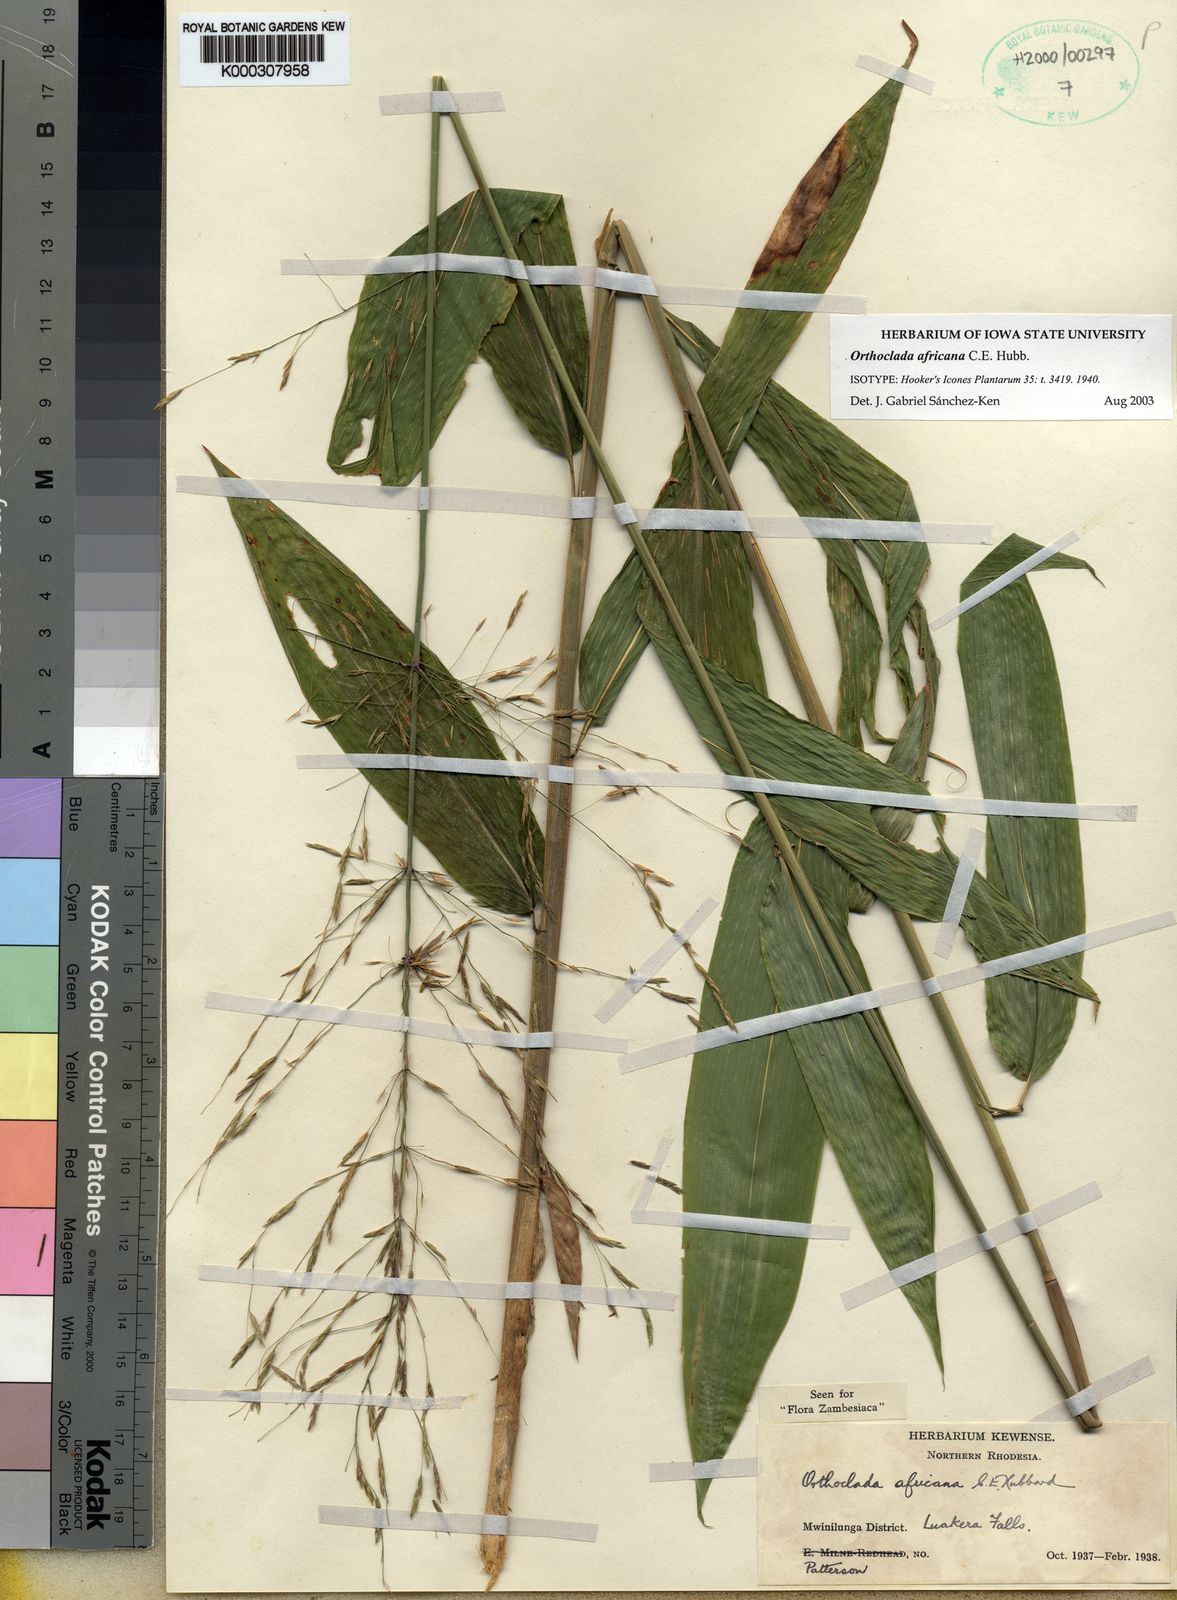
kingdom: Plantae
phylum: Tracheophyta
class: Liliopsida
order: Poales
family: Poaceae
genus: Orthoclada
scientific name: Orthoclada africana
